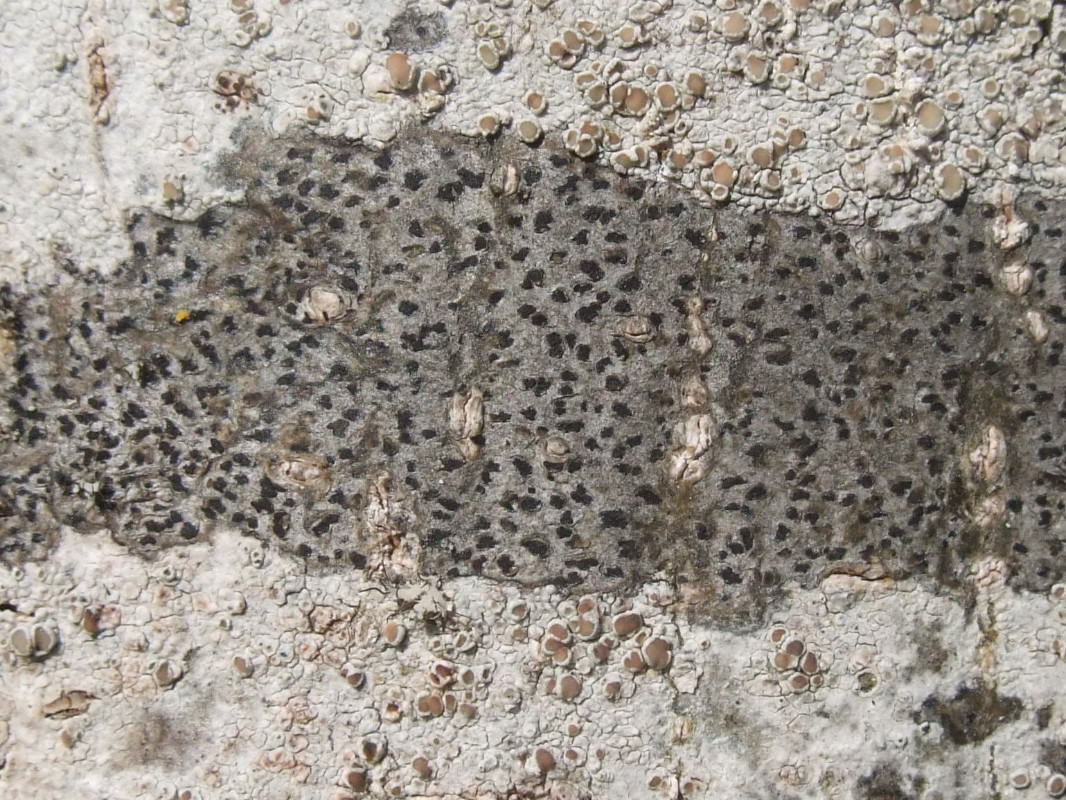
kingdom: Fungi
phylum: Ascomycota
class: Arthoniomycetes
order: Arthoniales
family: Arthoniaceae
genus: Arthonia
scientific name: Arthonia radiata
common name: stjerne-pletlav
